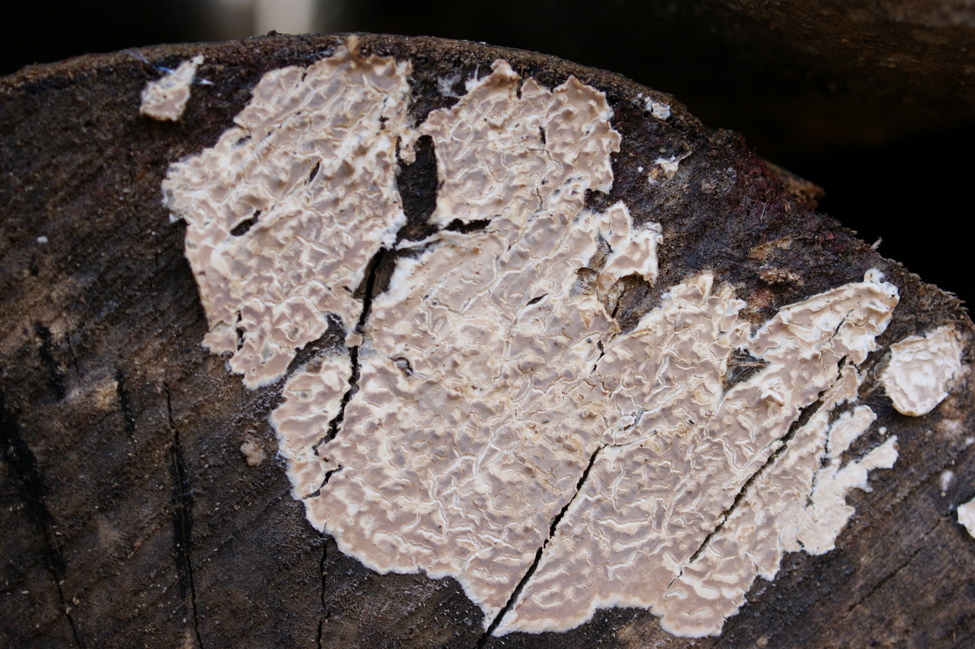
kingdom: Fungi
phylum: Basidiomycota
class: Agaricomycetes
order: Agaricales
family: Physalacriaceae
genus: Cylindrobasidium
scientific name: Cylindrobasidium evolvens
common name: sprækkehinde
